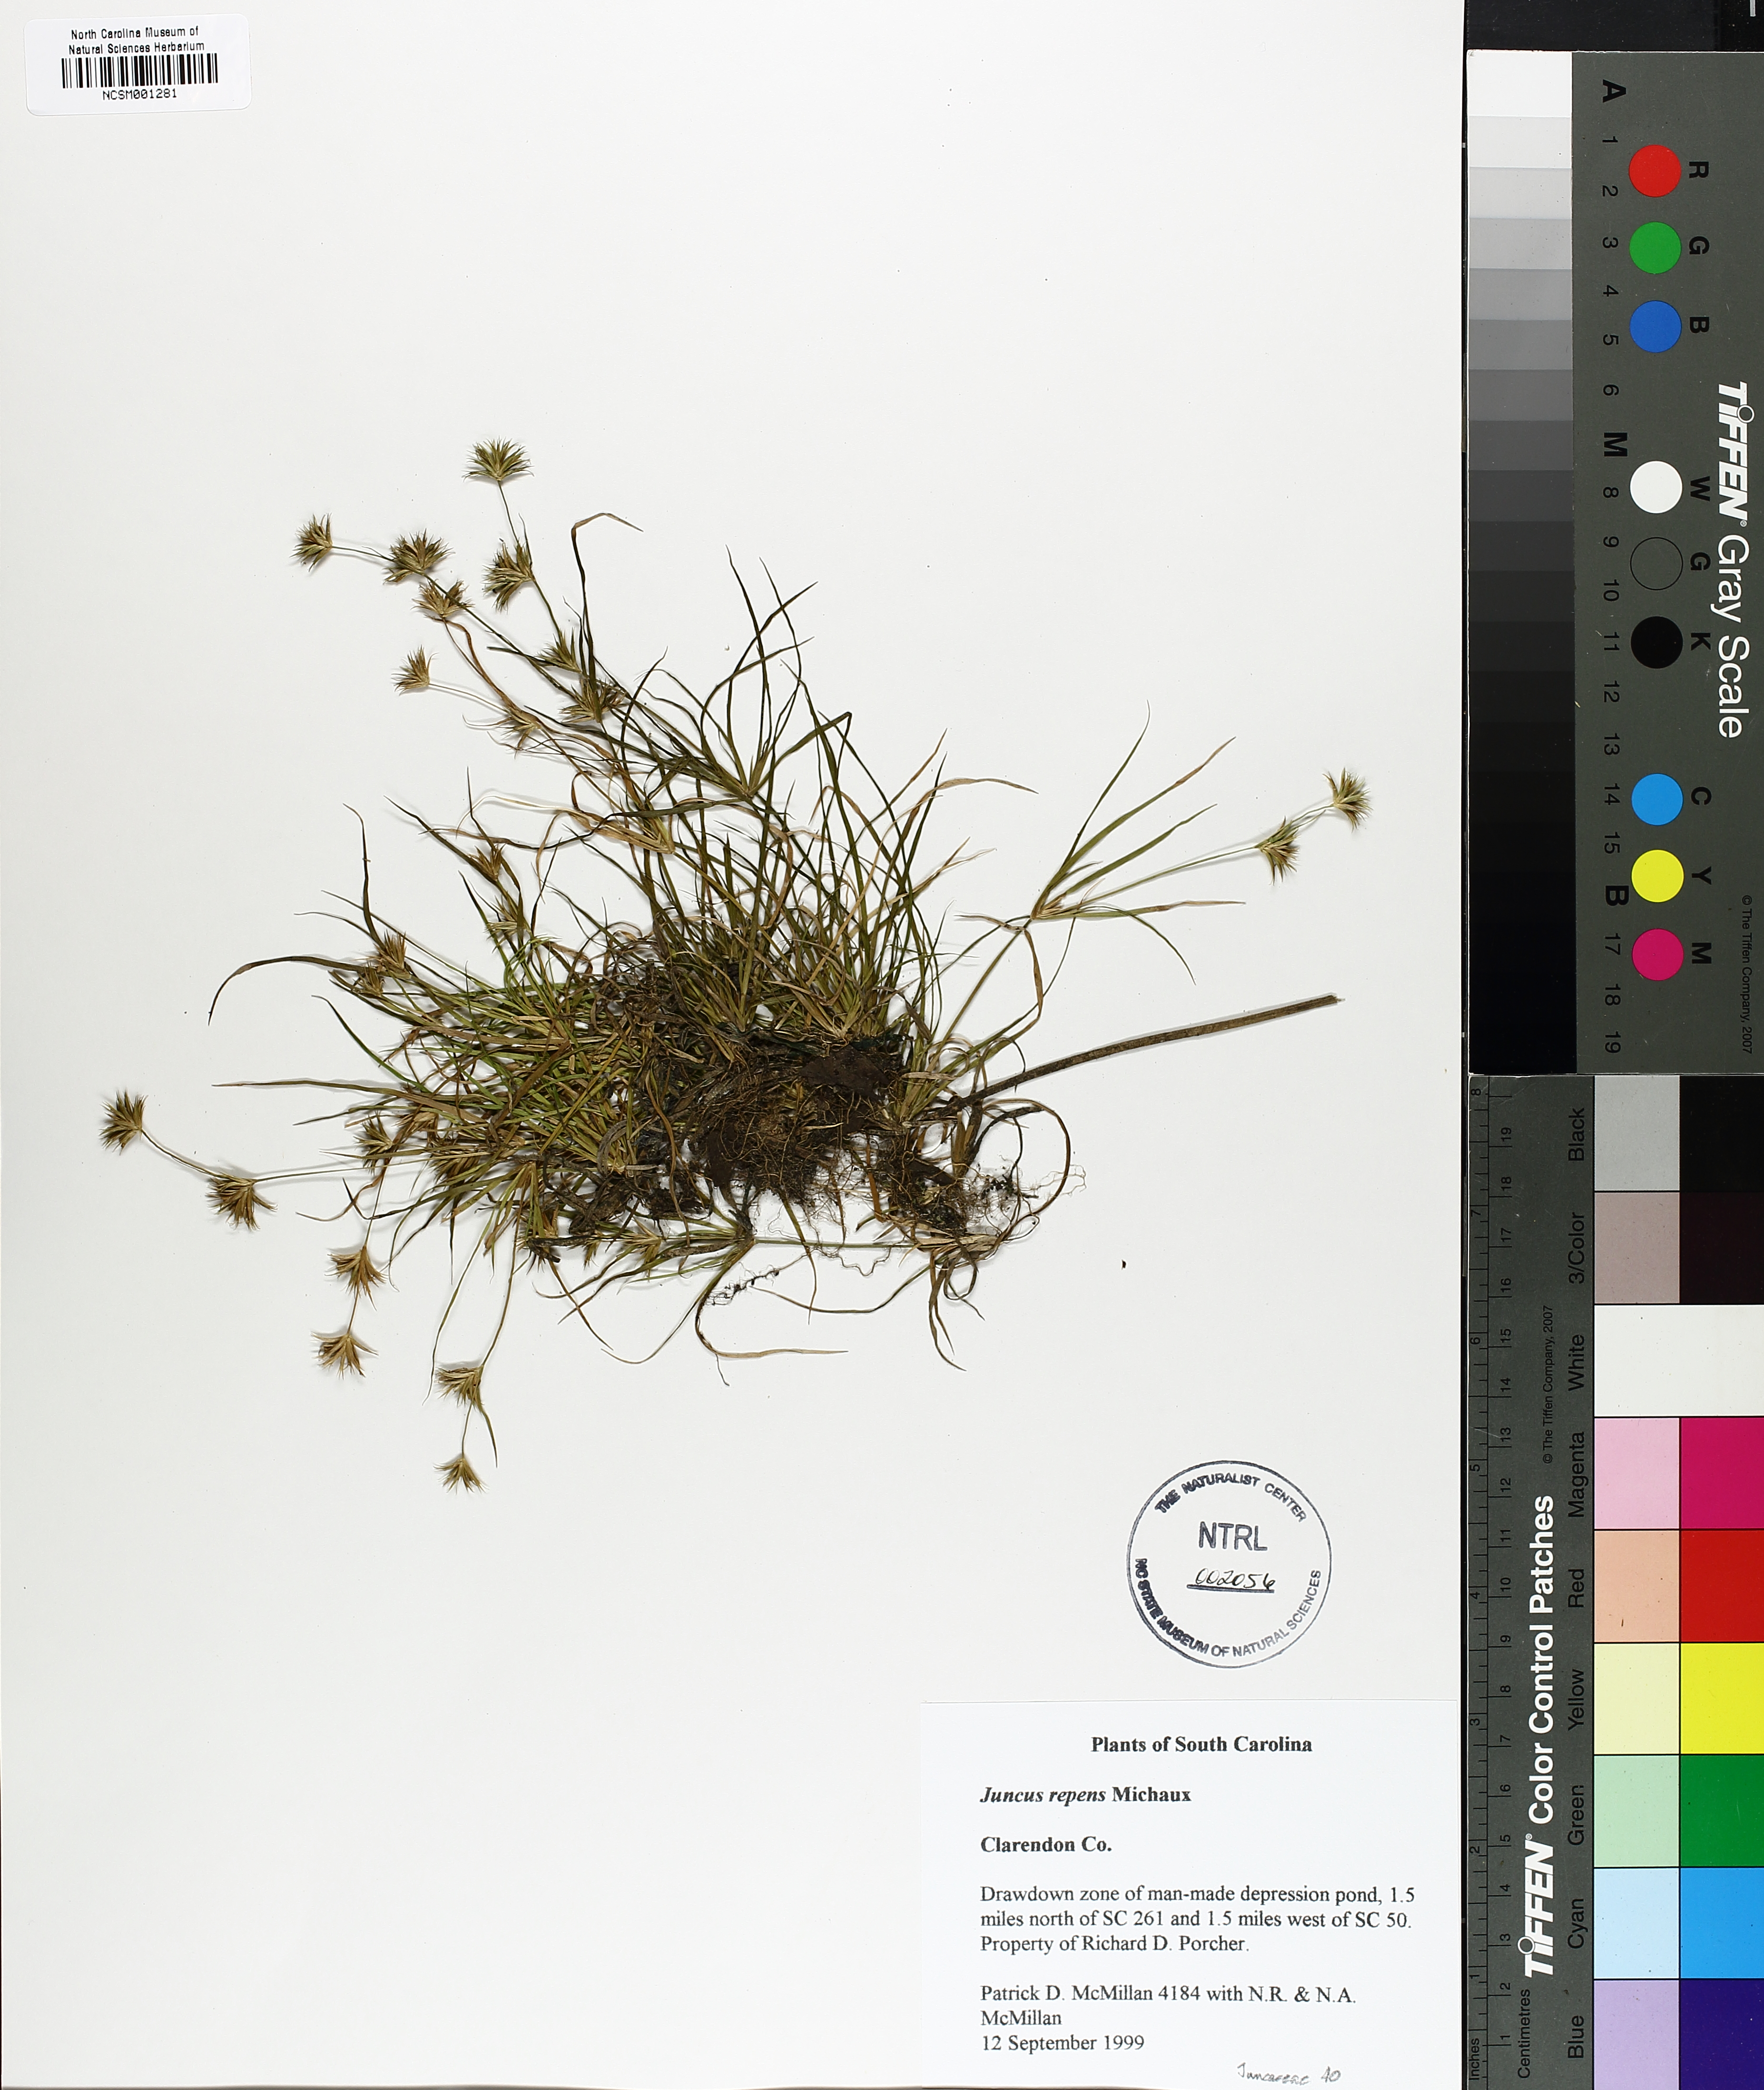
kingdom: Plantae
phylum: Tracheophyta
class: Liliopsida
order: Poales
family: Juncaceae
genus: Juncus
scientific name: Juncus repens
